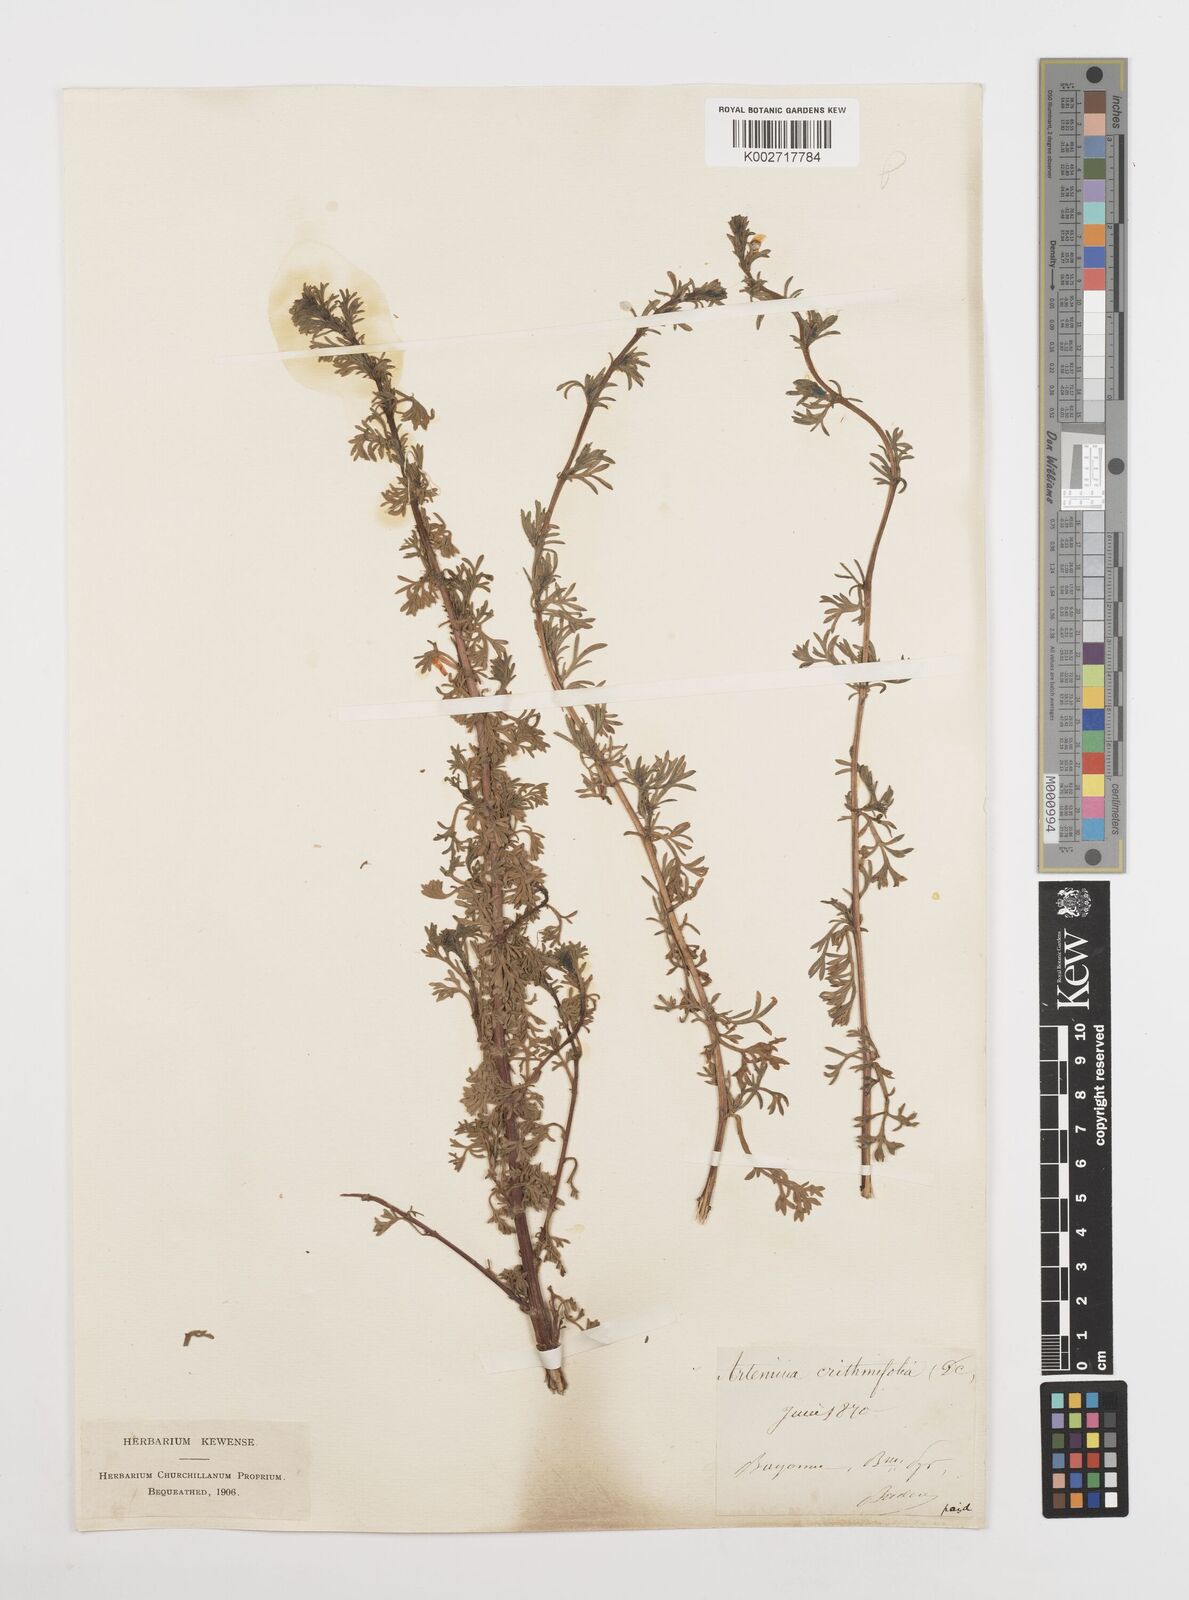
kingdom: Plantae
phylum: Tracheophyta
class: Magnoliopsida
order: Asterales
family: Asteraceae
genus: Artemisia
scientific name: Artemisia campestris
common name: Field wormwood
